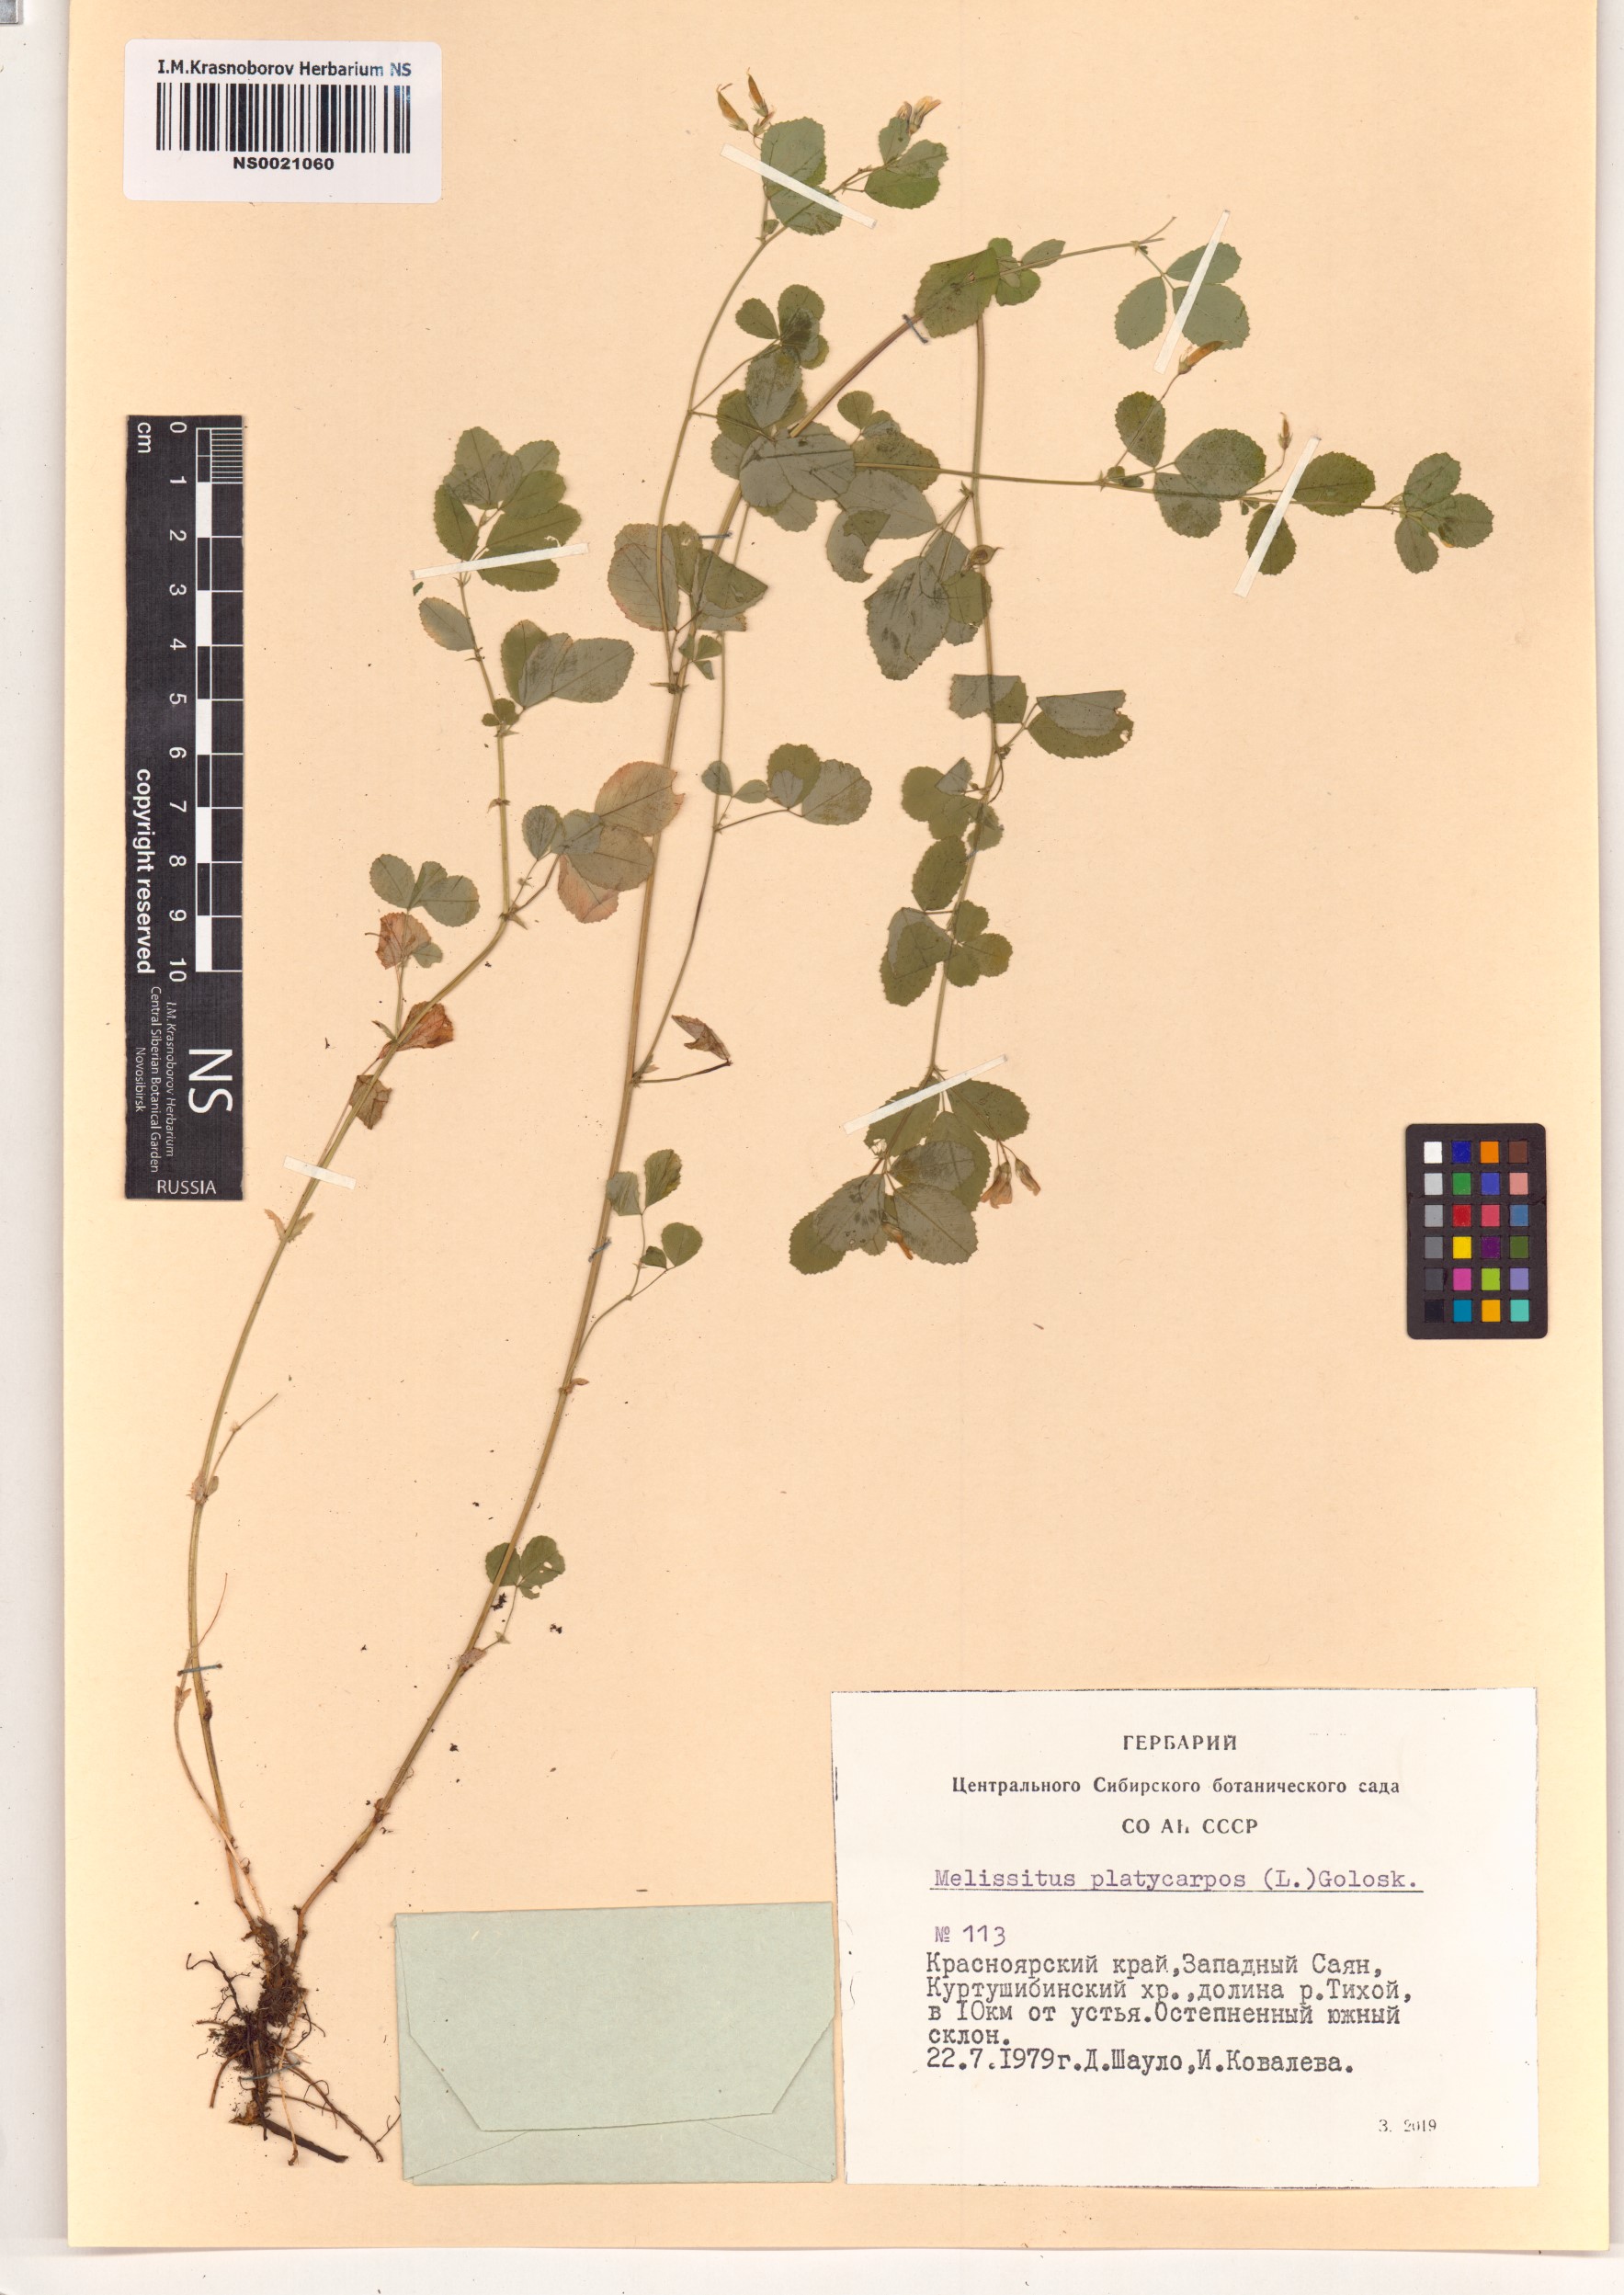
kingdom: Plantae
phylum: Tracheophyta
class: Magnoliopsida
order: Fabales
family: Fabaceae
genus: Medicago
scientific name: Medicago platycarpos
